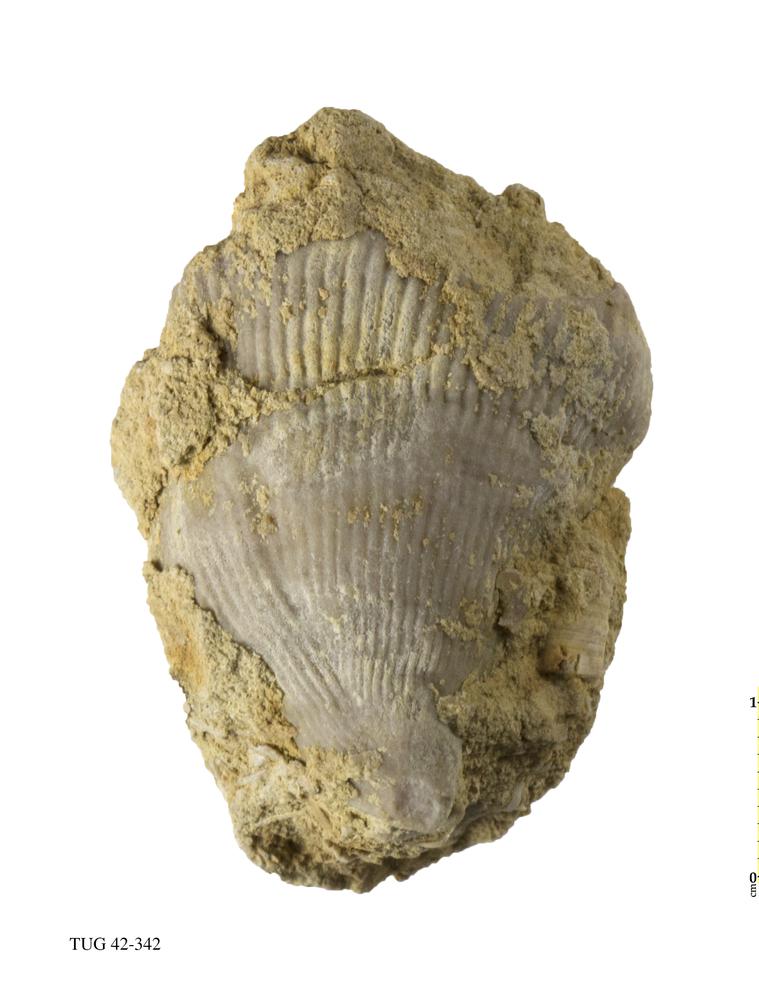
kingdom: Animalia
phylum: Cnidaria
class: Anthozoa
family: Streptelasmatidae
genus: Streptelasma
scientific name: Streptelasma corniculum
